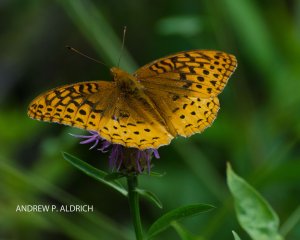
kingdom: Animalia
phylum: Arthropoda
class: Insecta
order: Lepidoptera
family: Nymphalidae
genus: Speyeria
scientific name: Speyeria cybele
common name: Great Spangled Fritillary
